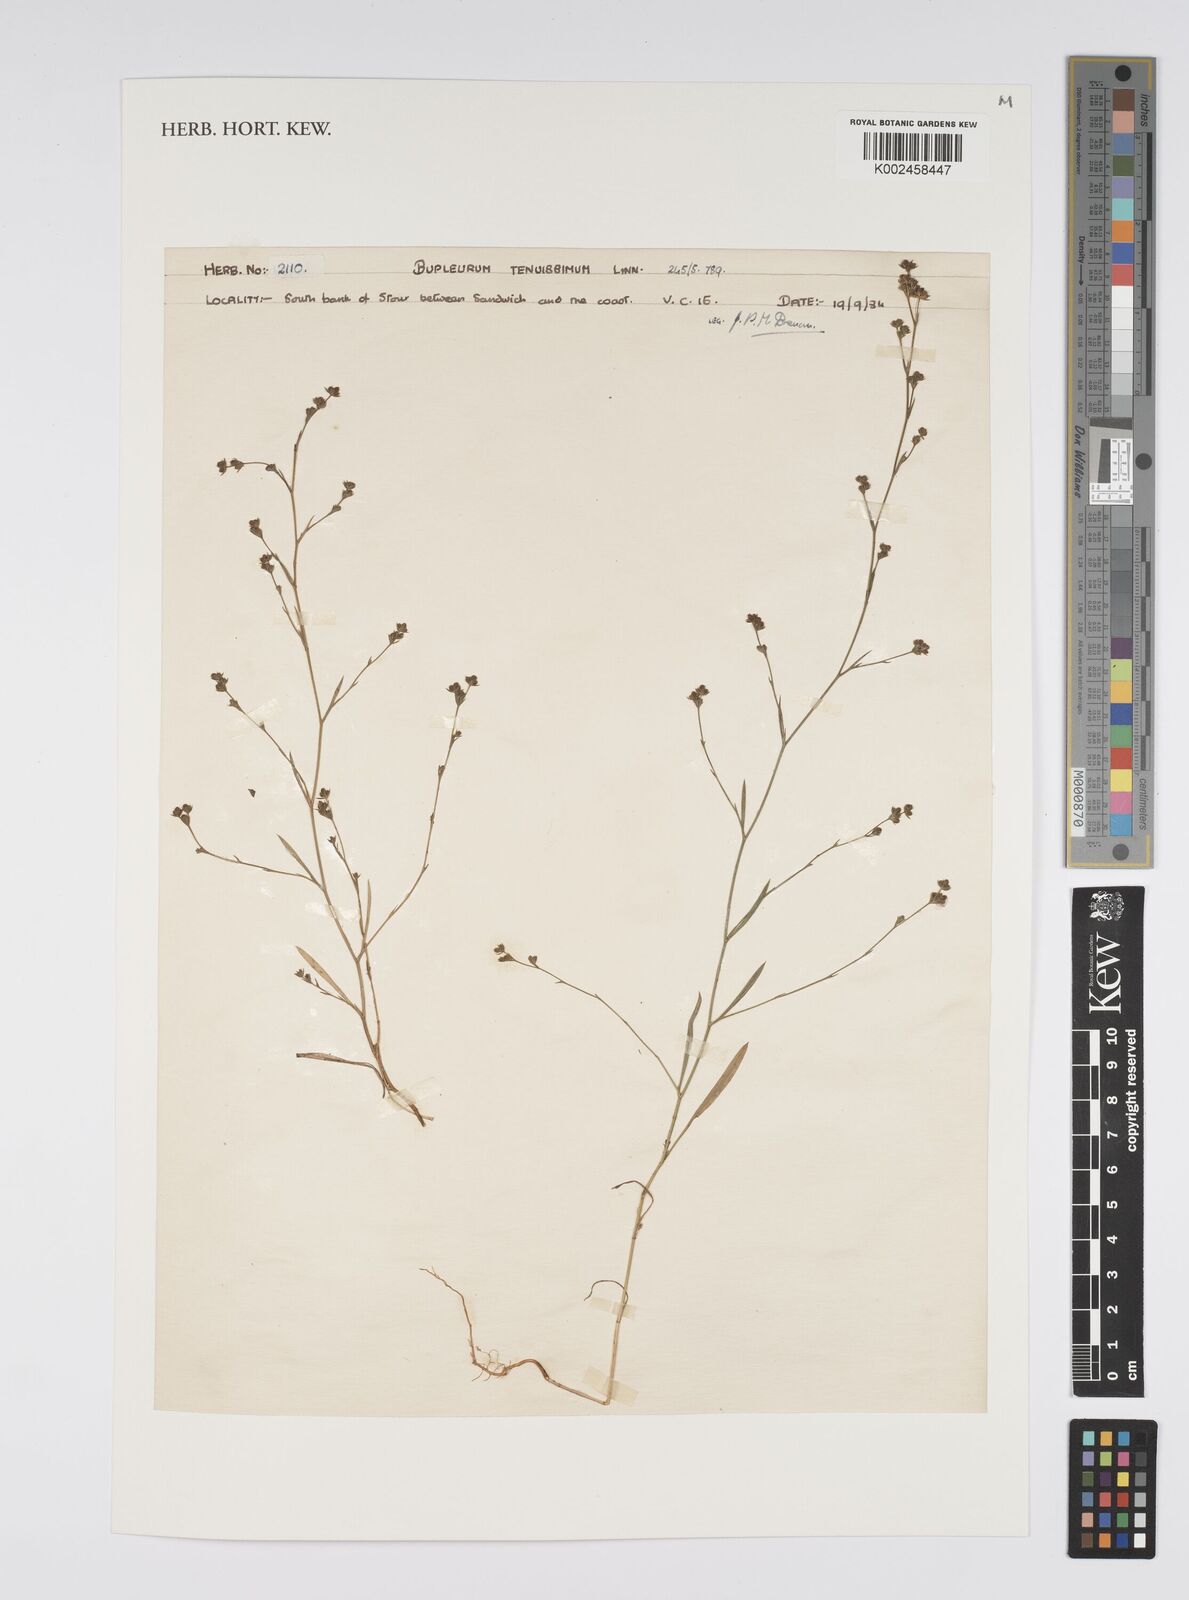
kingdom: Plantae
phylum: Tracheophyta
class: Magnoliopsida
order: Apiales
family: Apiaceae
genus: Bupleurum
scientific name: Bupleurum tenuissimum
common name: Slender hare's-ear
